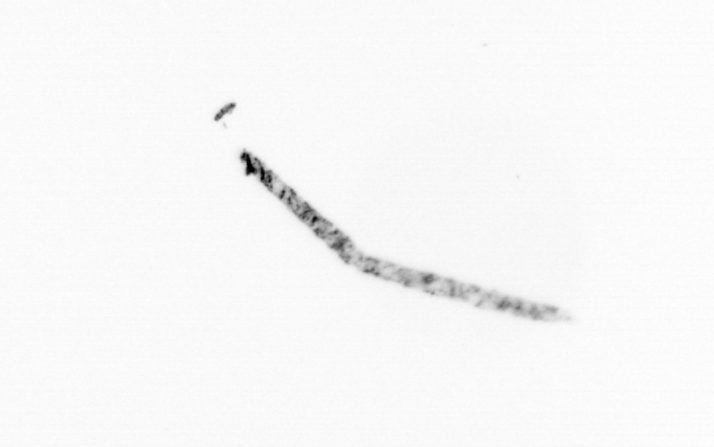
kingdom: Animalia
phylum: Chordata
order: Copelata
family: Fritillariidae
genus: Appendicularia
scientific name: Appendicularia
